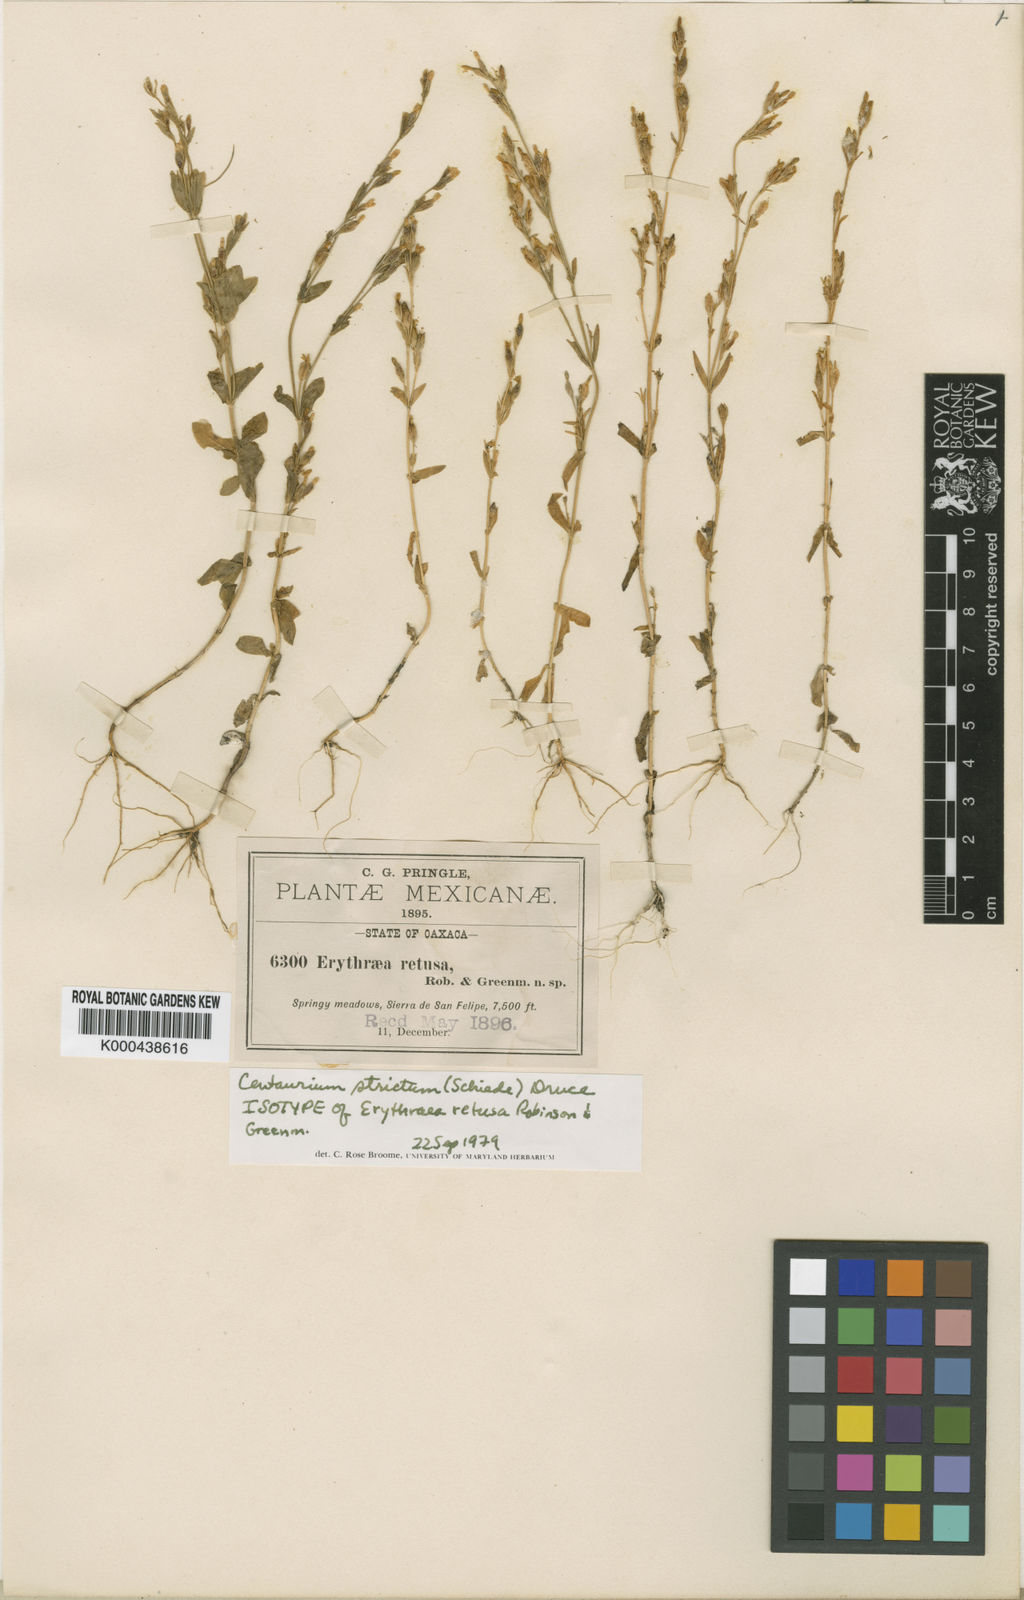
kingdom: Plantae
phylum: Tracheophyta
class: Magnoliopsida
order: Gentianales
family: Gentianaceae
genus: Zeltnera
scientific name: Zeltnera setacea
